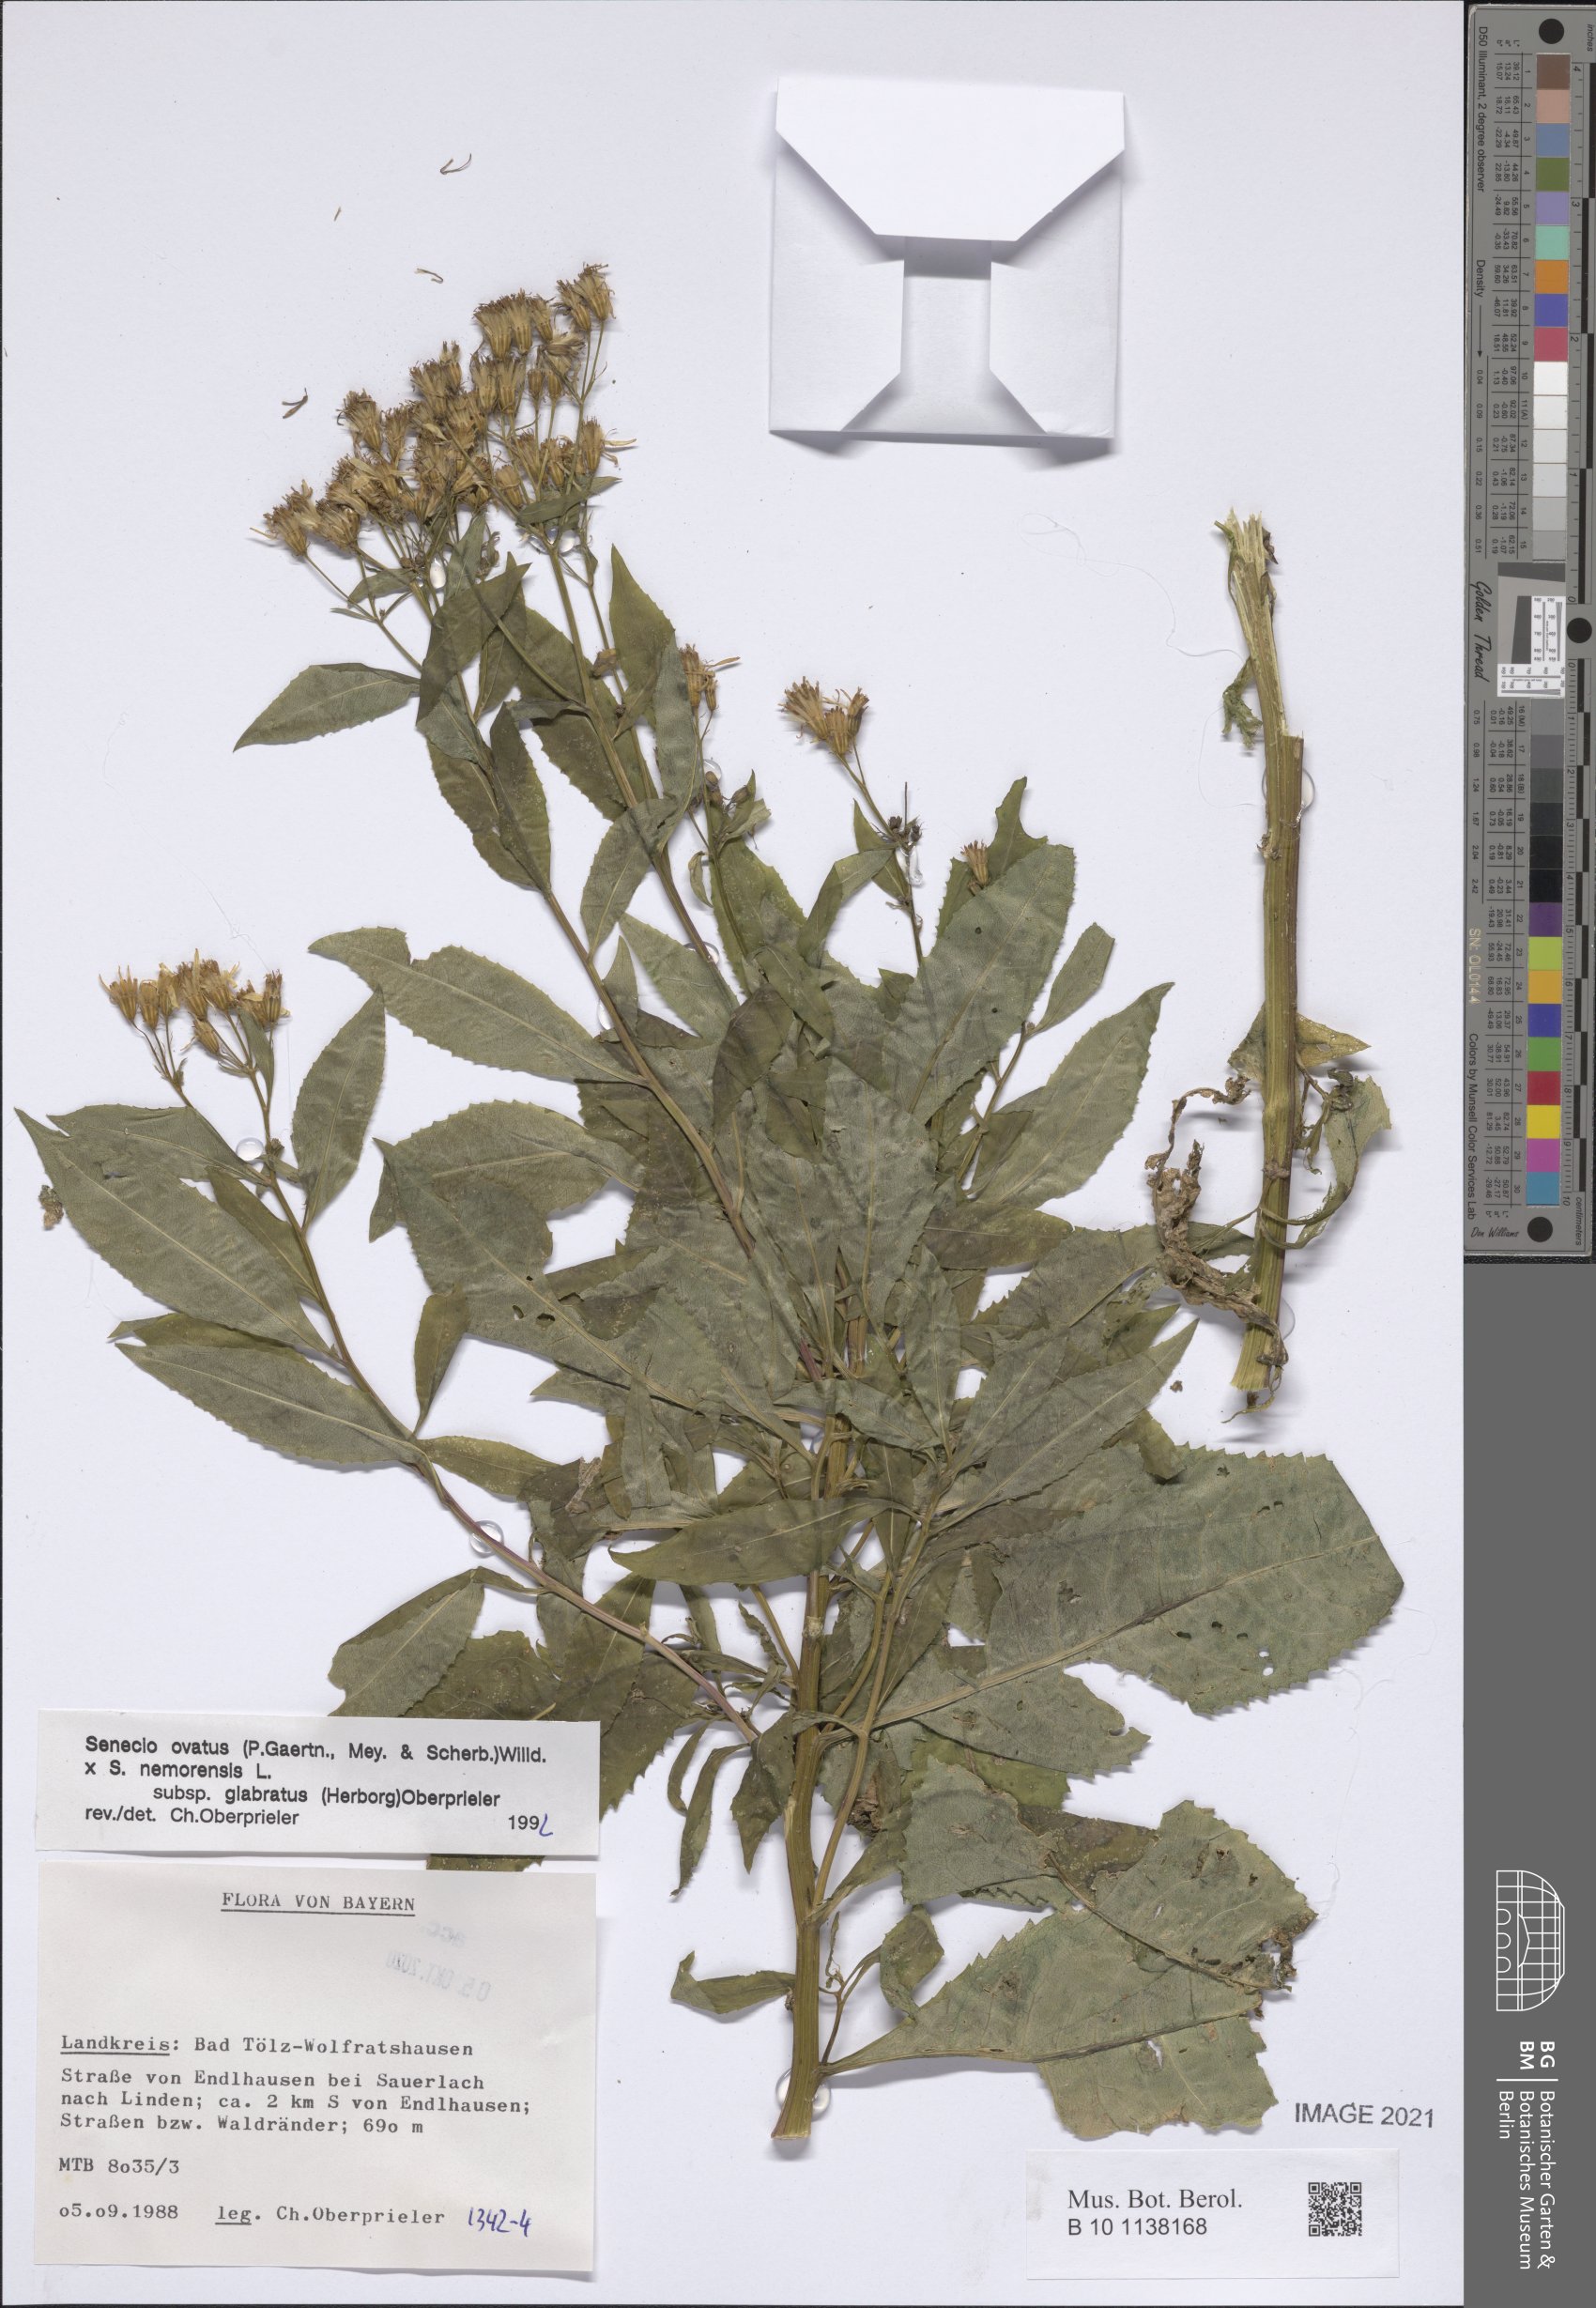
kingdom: Plantae
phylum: Tracheophyta
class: Magnoliopsida
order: Asterales
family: Asteraceae
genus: Senecio
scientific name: Senecio ovatus
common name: Wood ragwort
